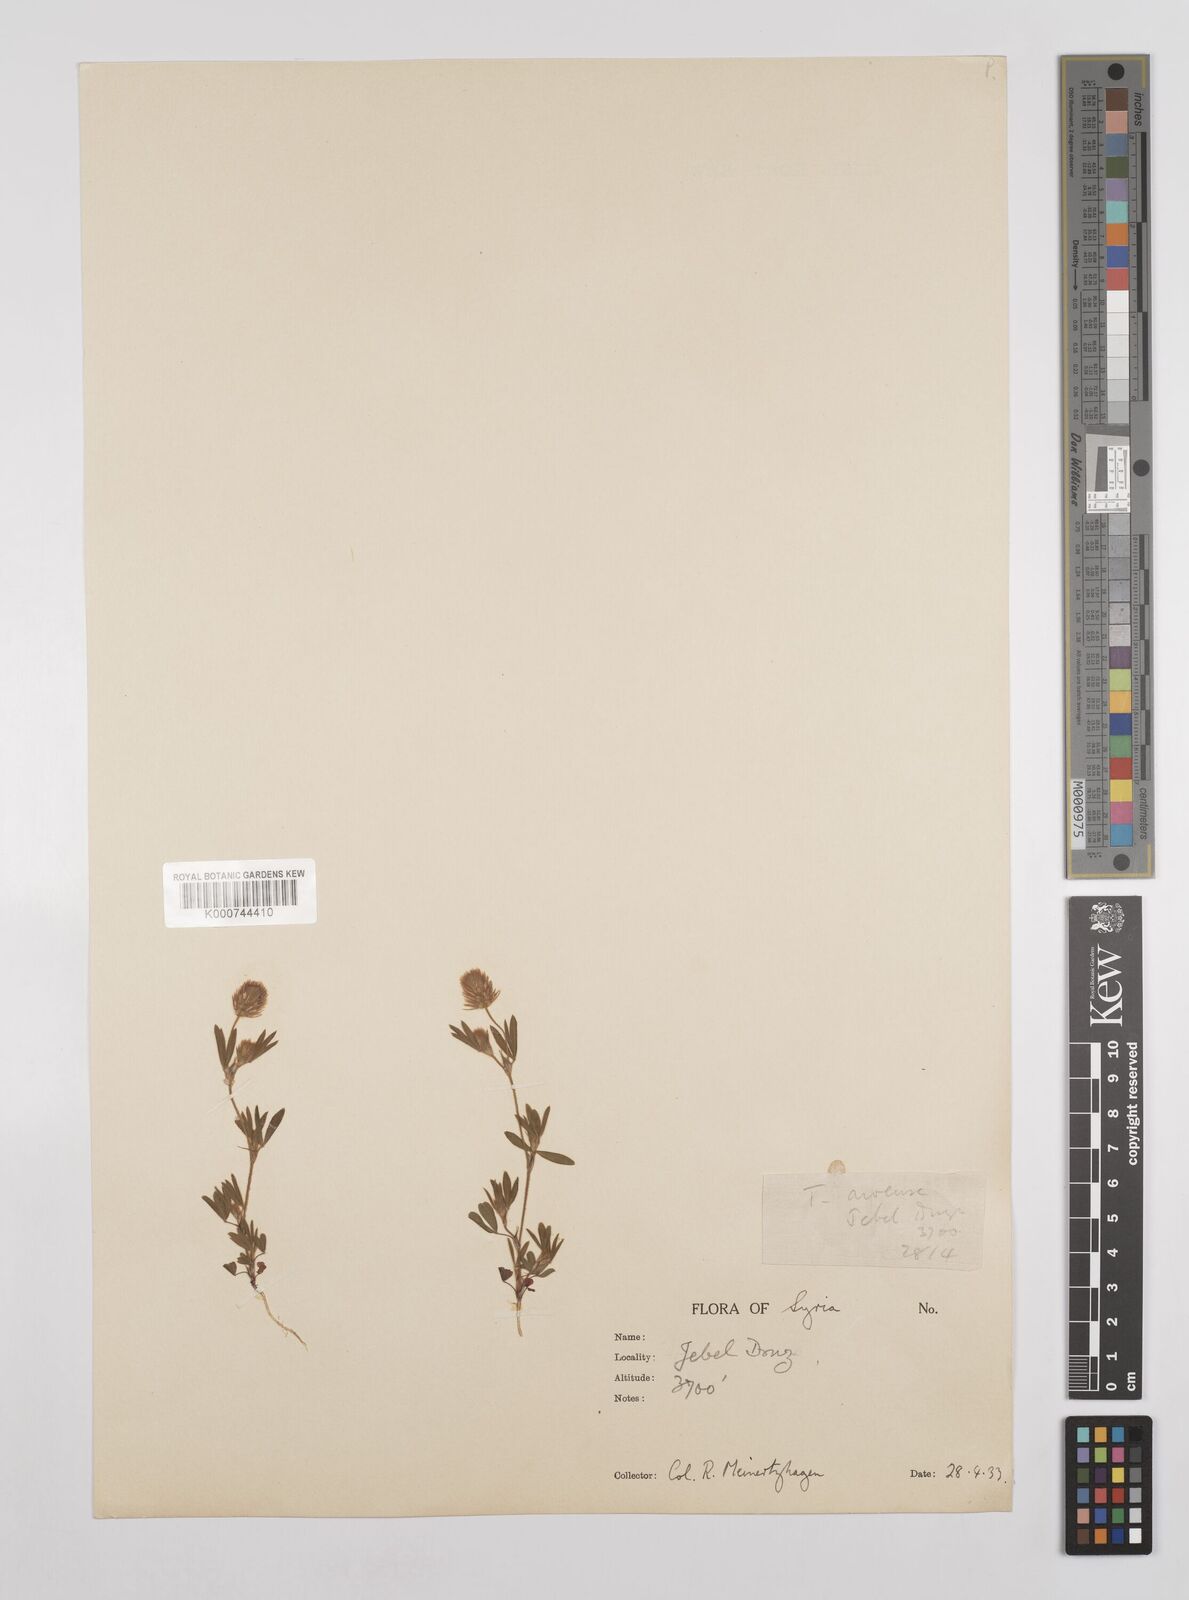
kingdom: Plantae
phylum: Tracheophyta
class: Magnoliopsida
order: Fabales
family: Fabaceae
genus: Trifolium
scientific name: Trifolium arvense
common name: Hare's-foot clover
